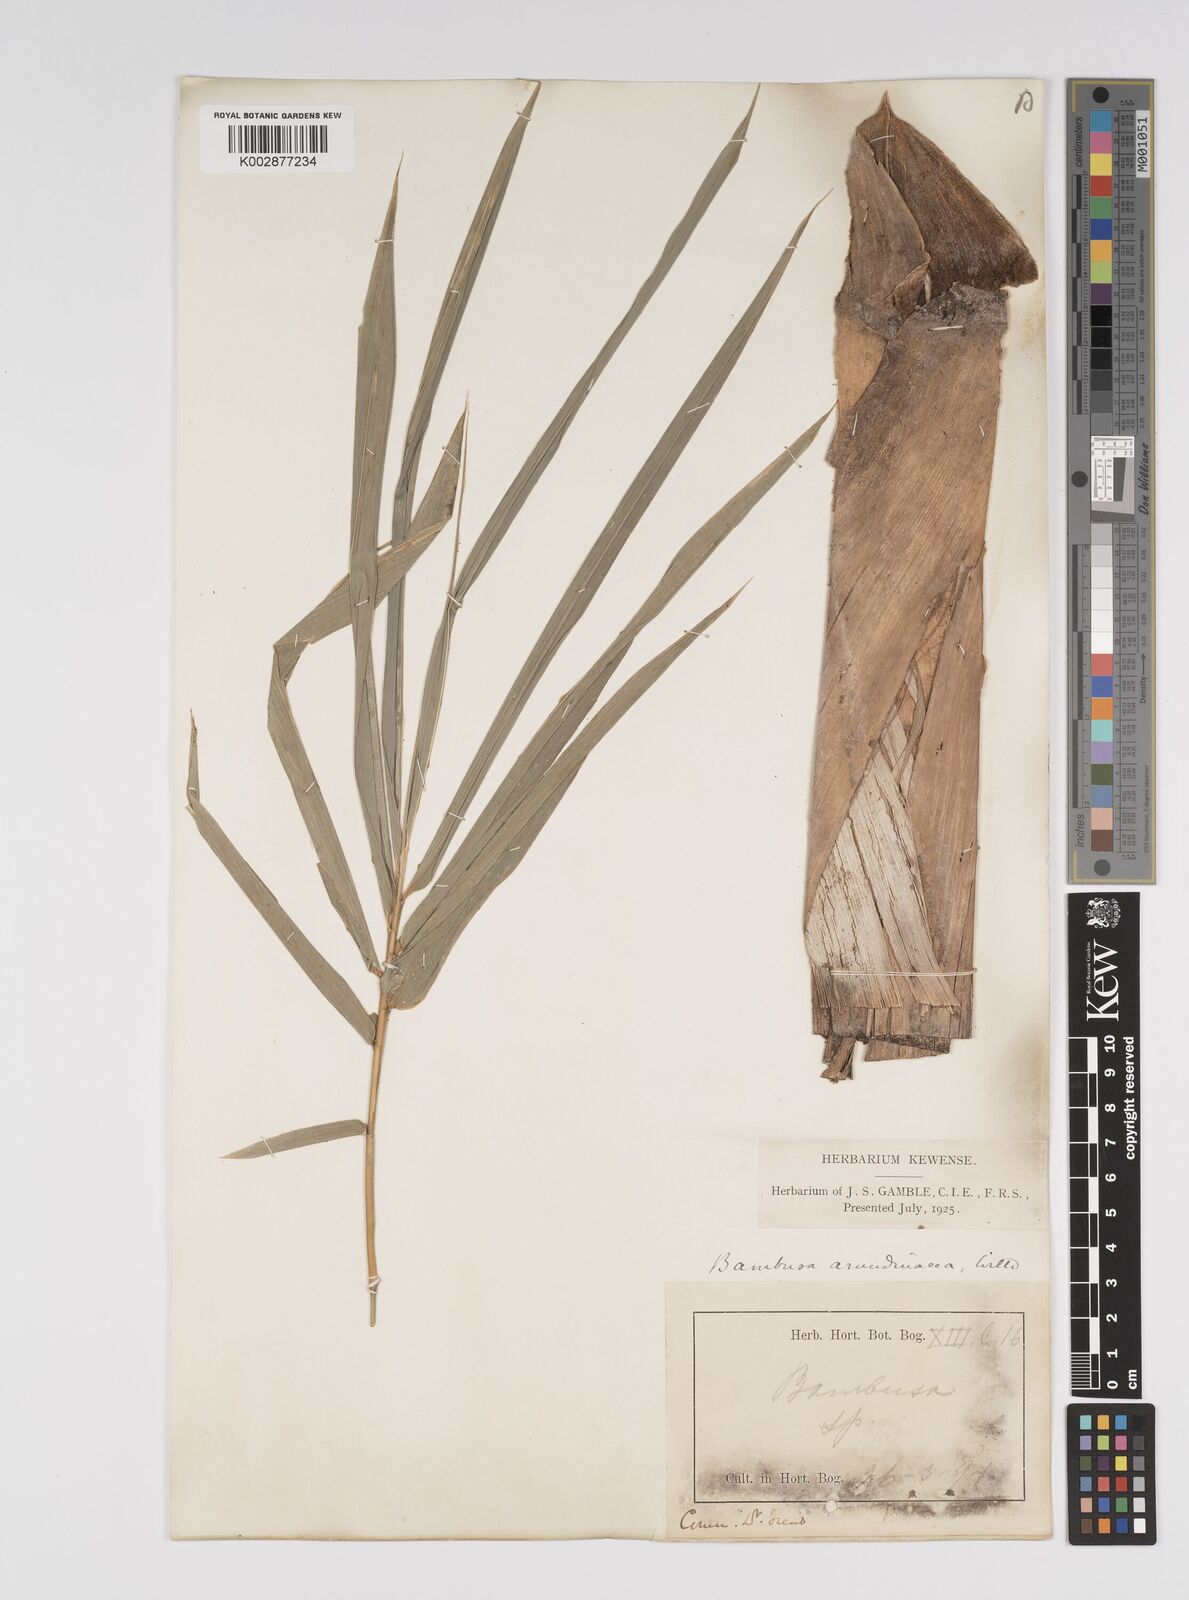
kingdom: Plantae
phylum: Tracheophyta
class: Liliopsida
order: Poales
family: Poaceae
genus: Bambusa
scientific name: Bambusa bambos
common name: Indian thorny bamboo
